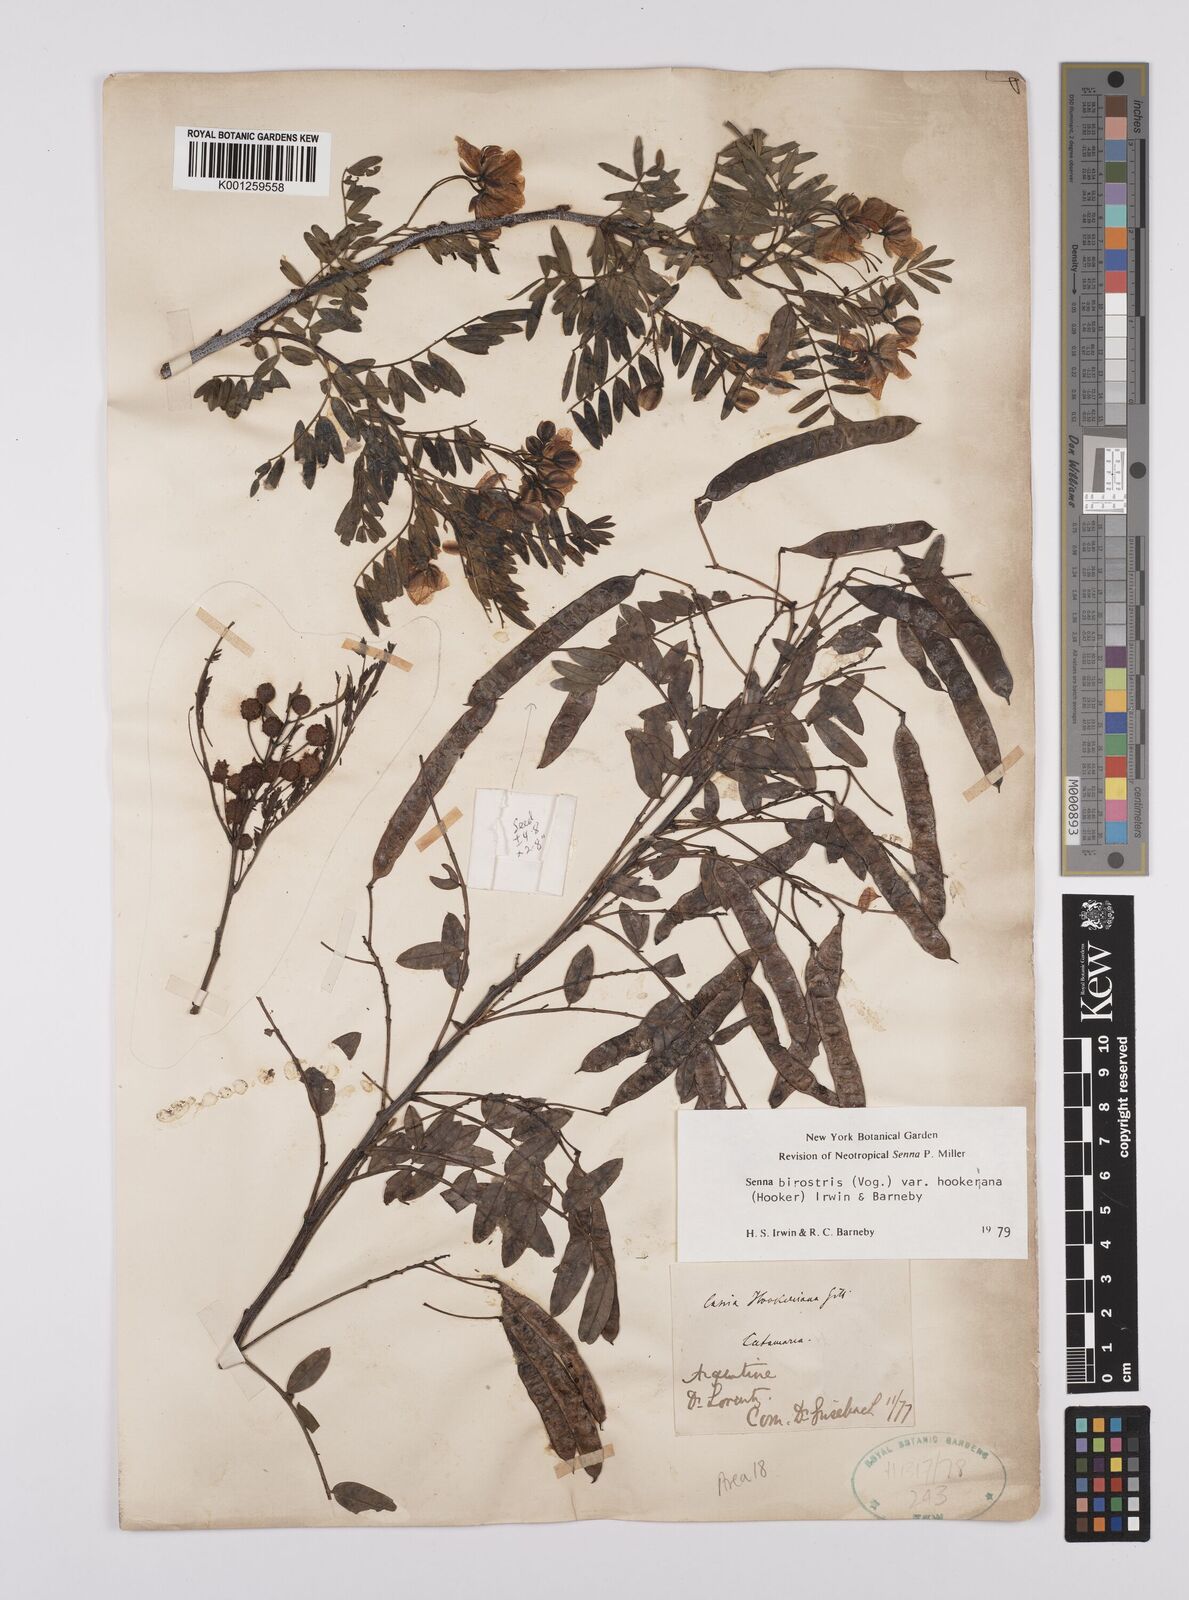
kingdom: Plantae
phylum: Tracheophyta
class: Magnoliopsida
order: Fabales
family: Fabaceae
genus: Senna
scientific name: Senna birostris
